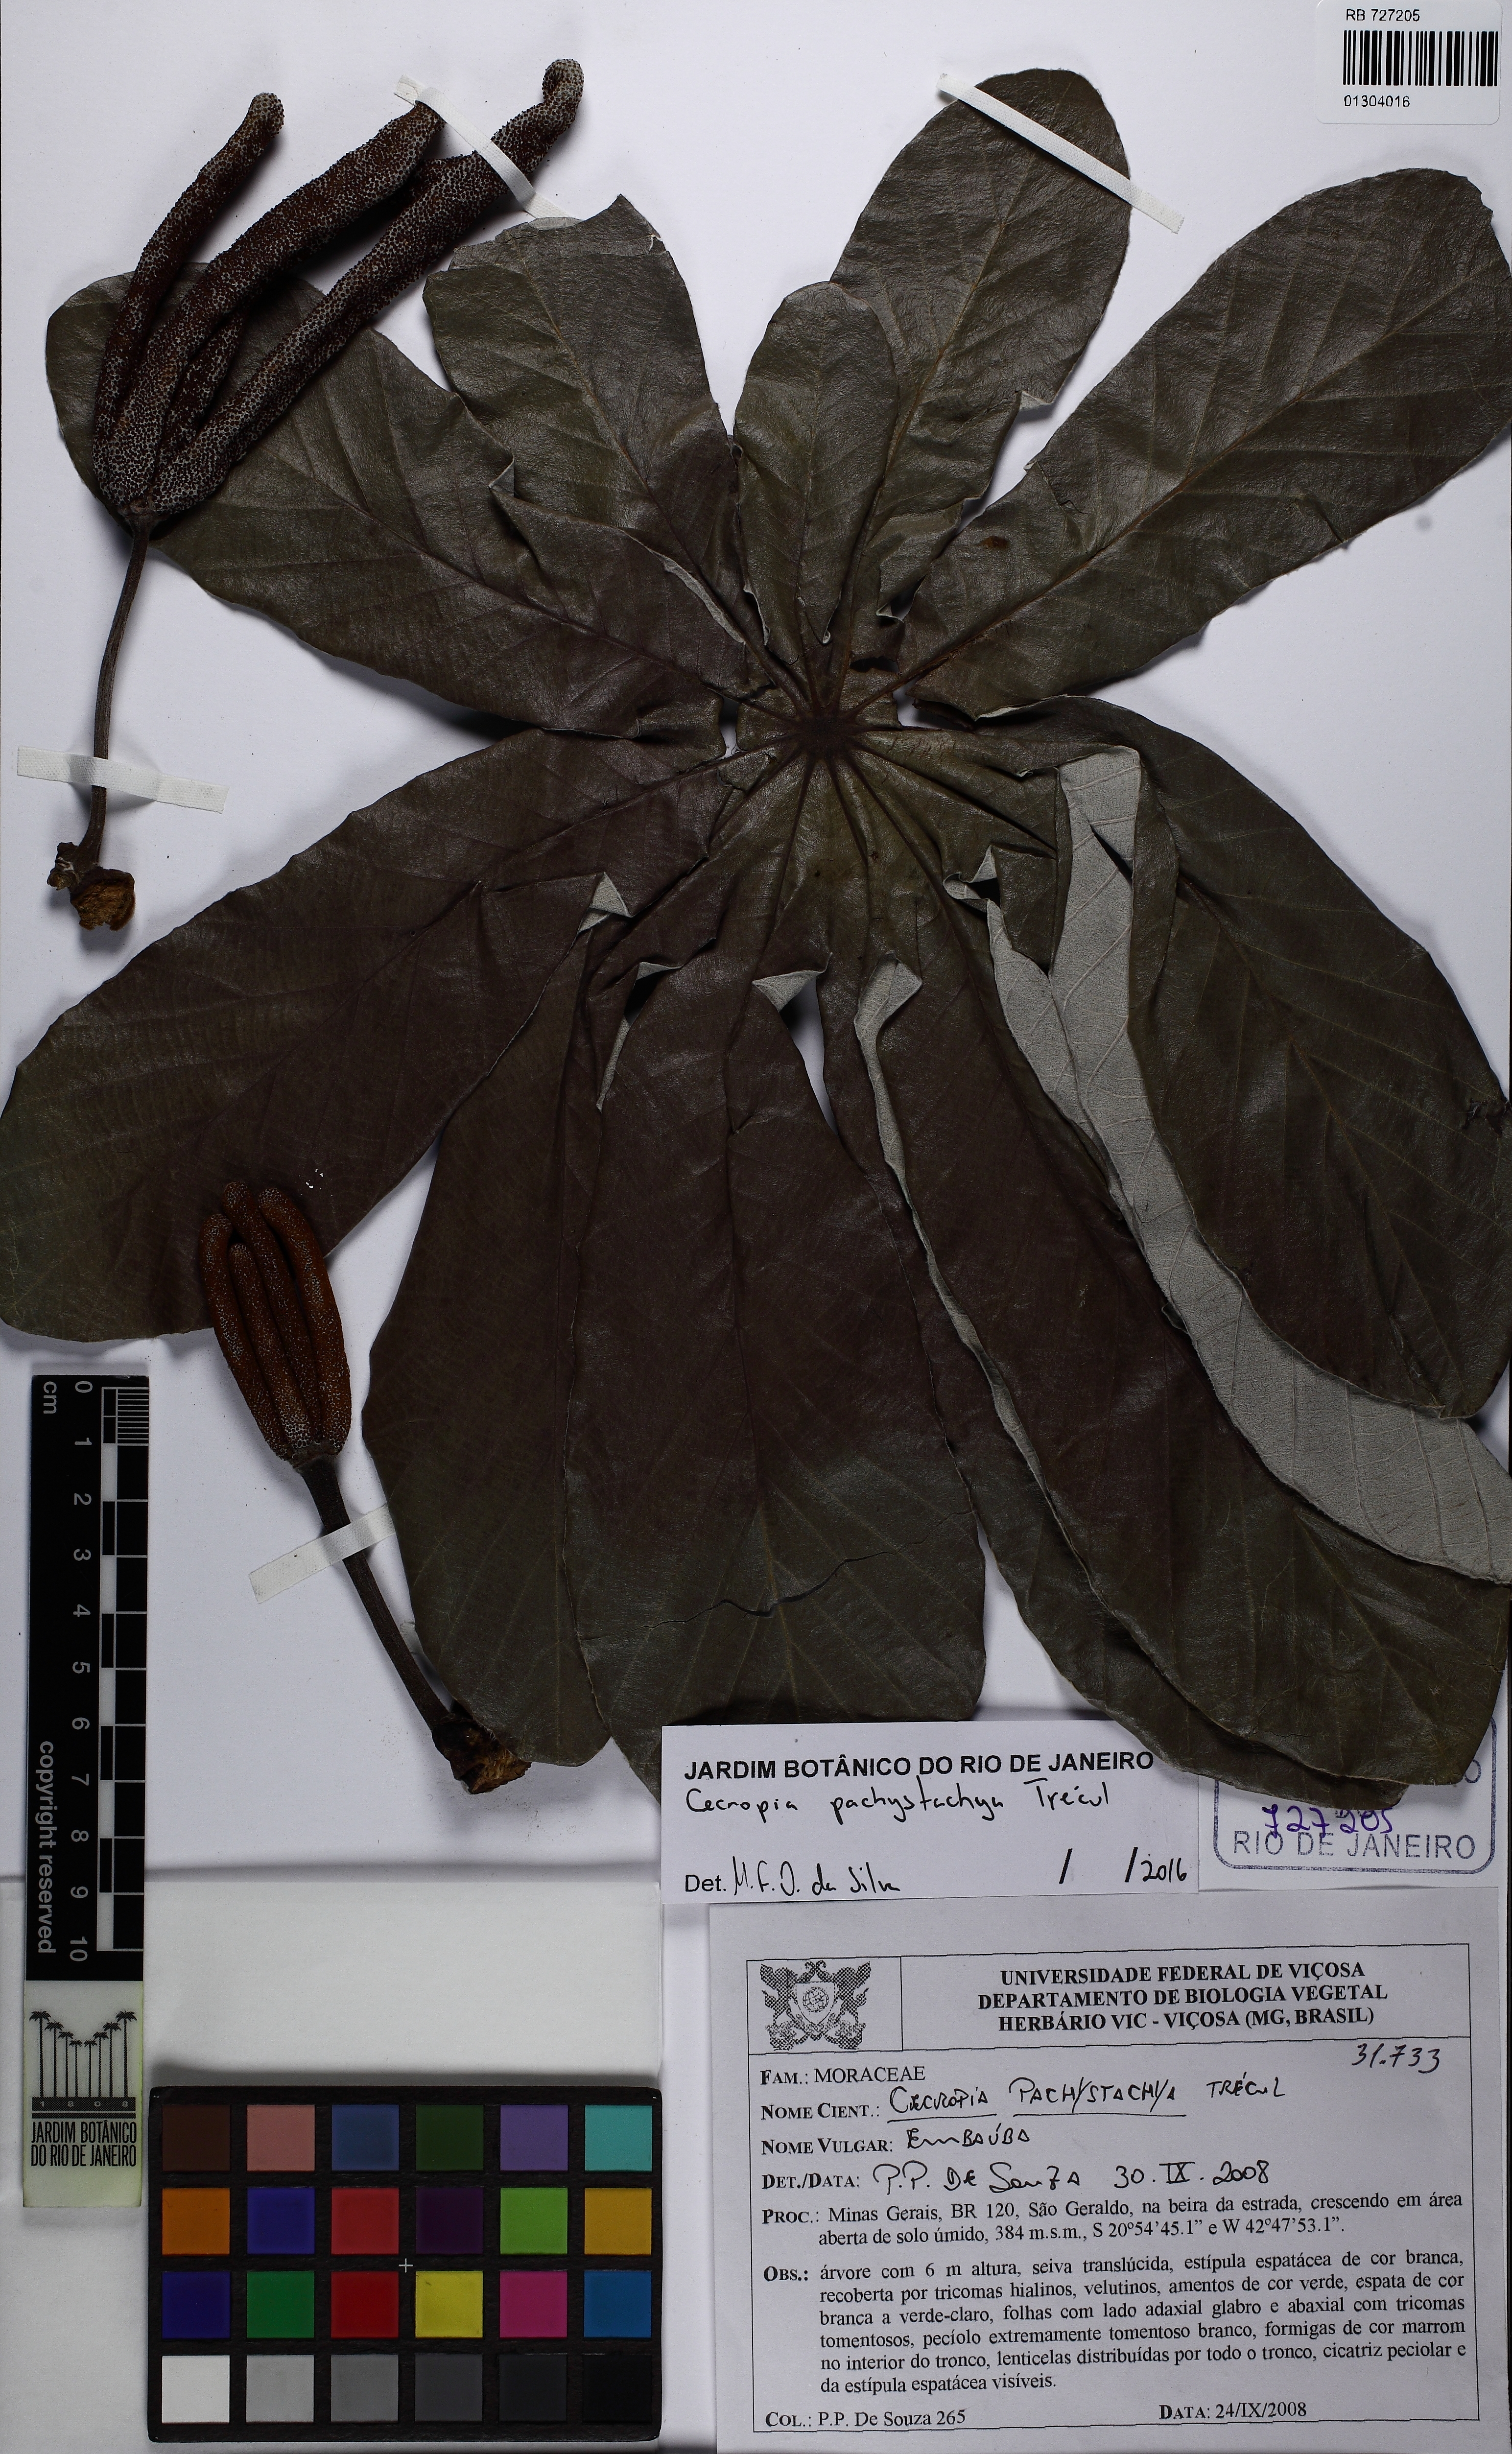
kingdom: Plantae
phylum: Tracheophyta
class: Magnoliopsida
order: Rosales
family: Urticaceae
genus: Cecropia
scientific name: Cecropia pachystachya
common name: Ambay pumpwood
